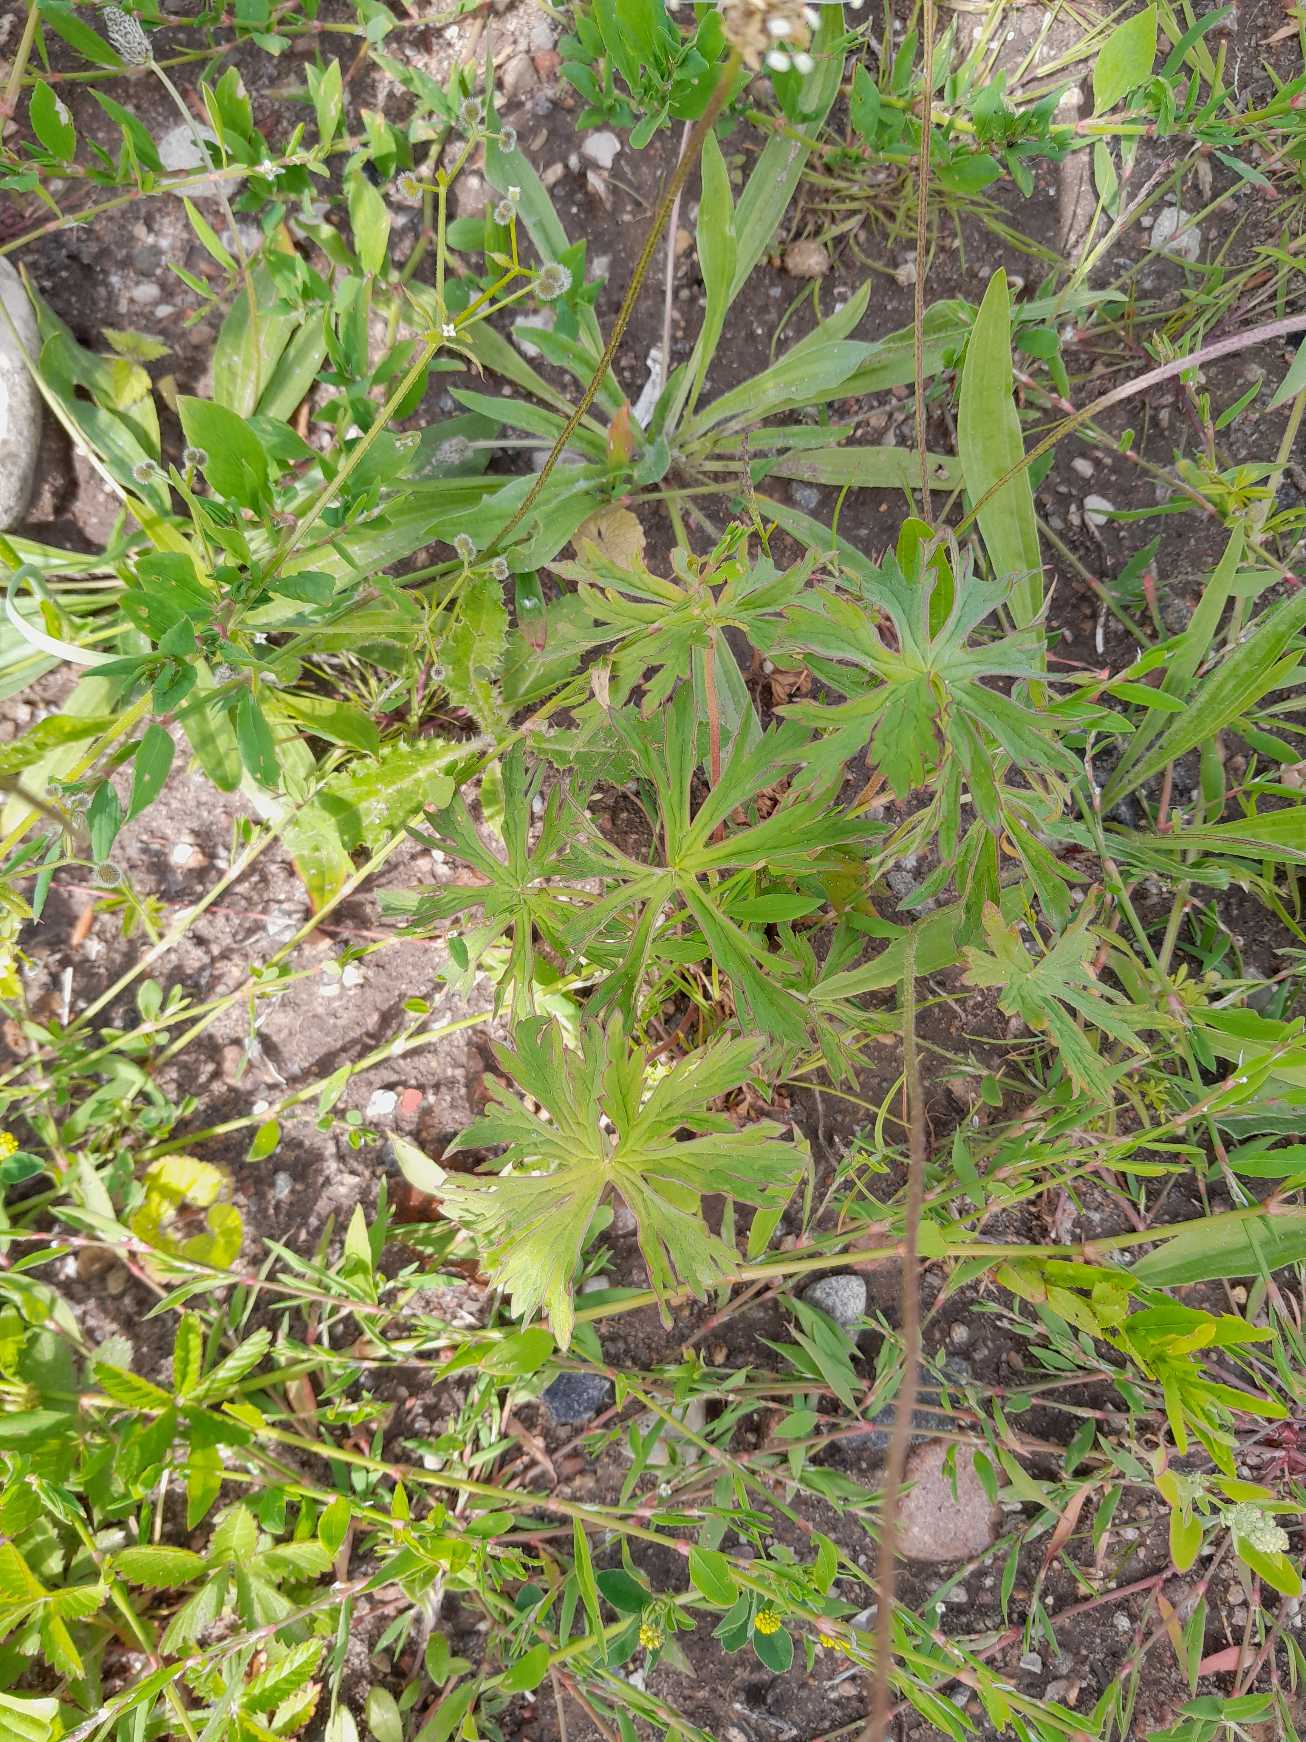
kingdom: Plantae
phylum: Tracheophyta
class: Magnoliopsida
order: Geraniales
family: Geraniaceae
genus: Geranium
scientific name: Geranium pratense
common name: Eng-storkenæb
